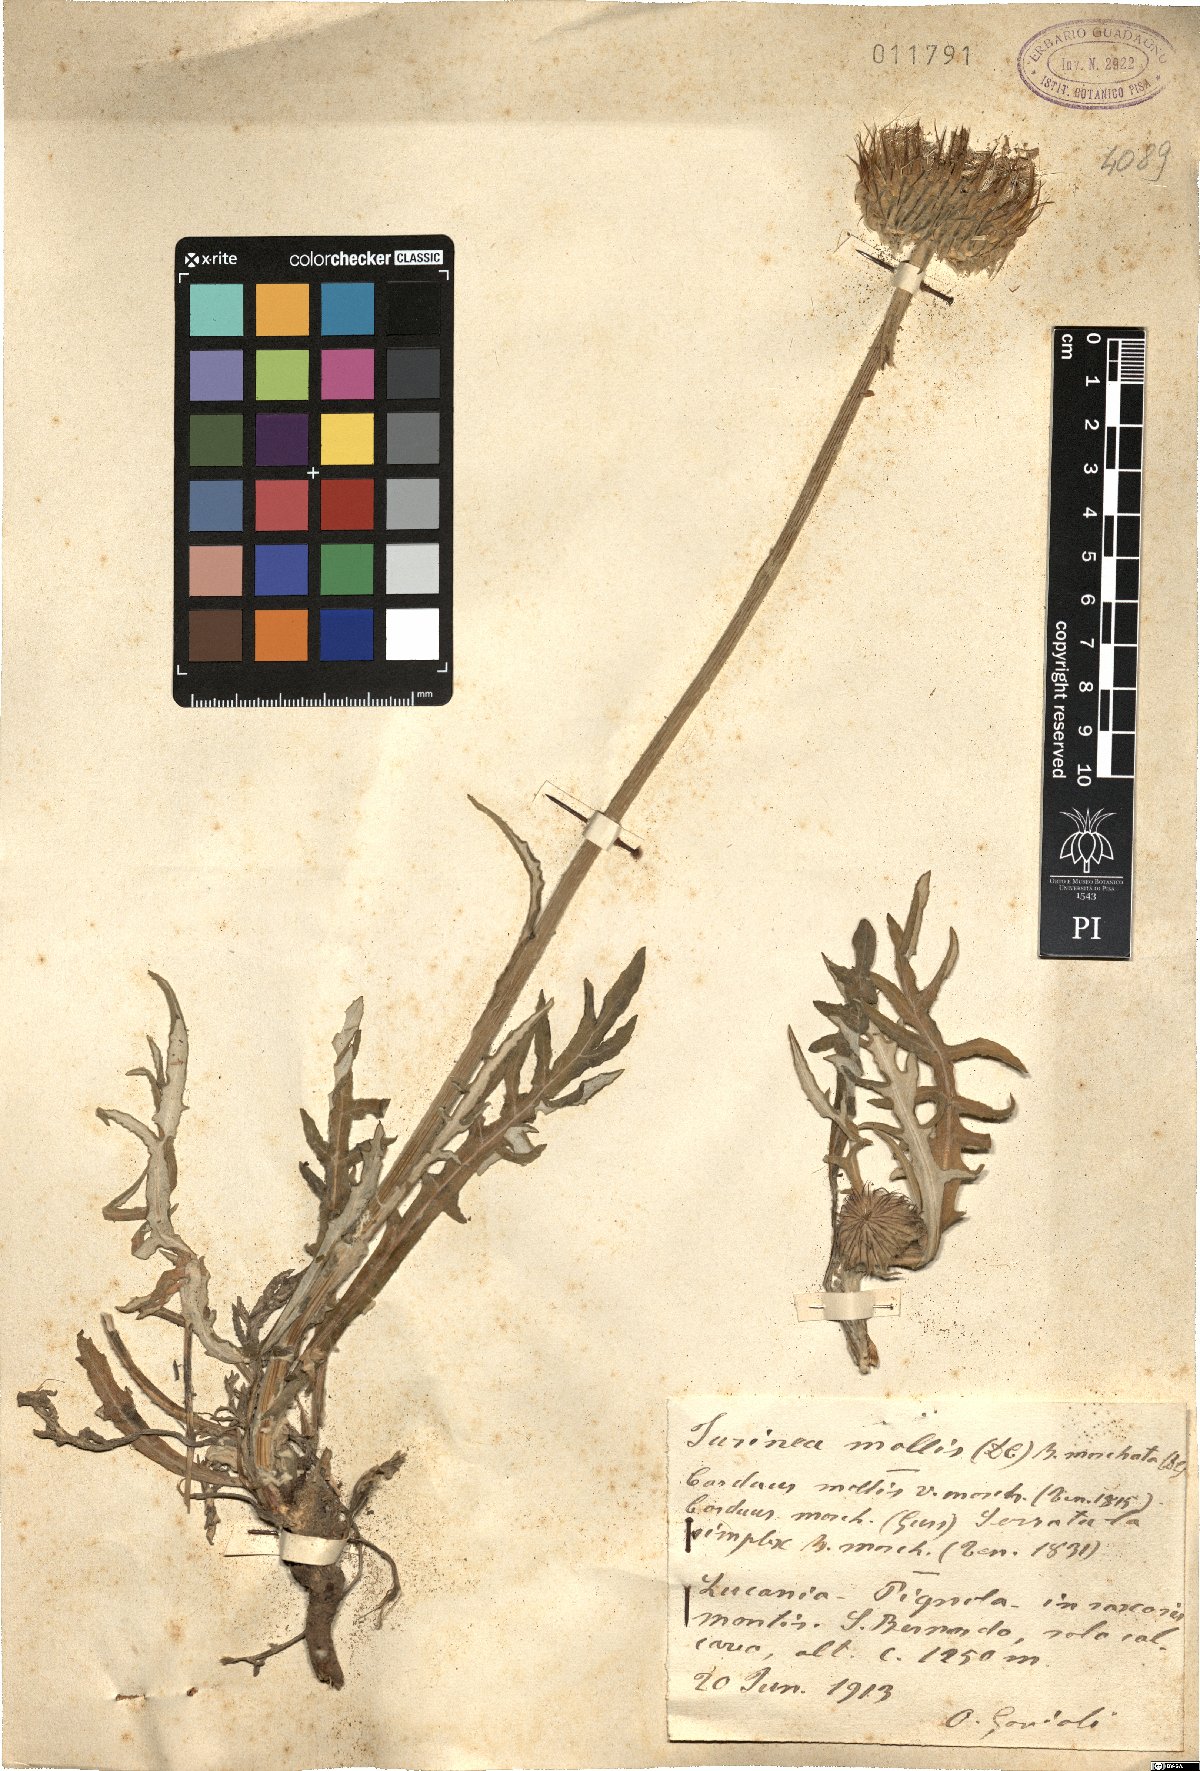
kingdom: Plantae
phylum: Tracheophyta
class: Magnoliopsida
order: Asterales
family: Asteraceae
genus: Jurinea
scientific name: Jurinea mollis
